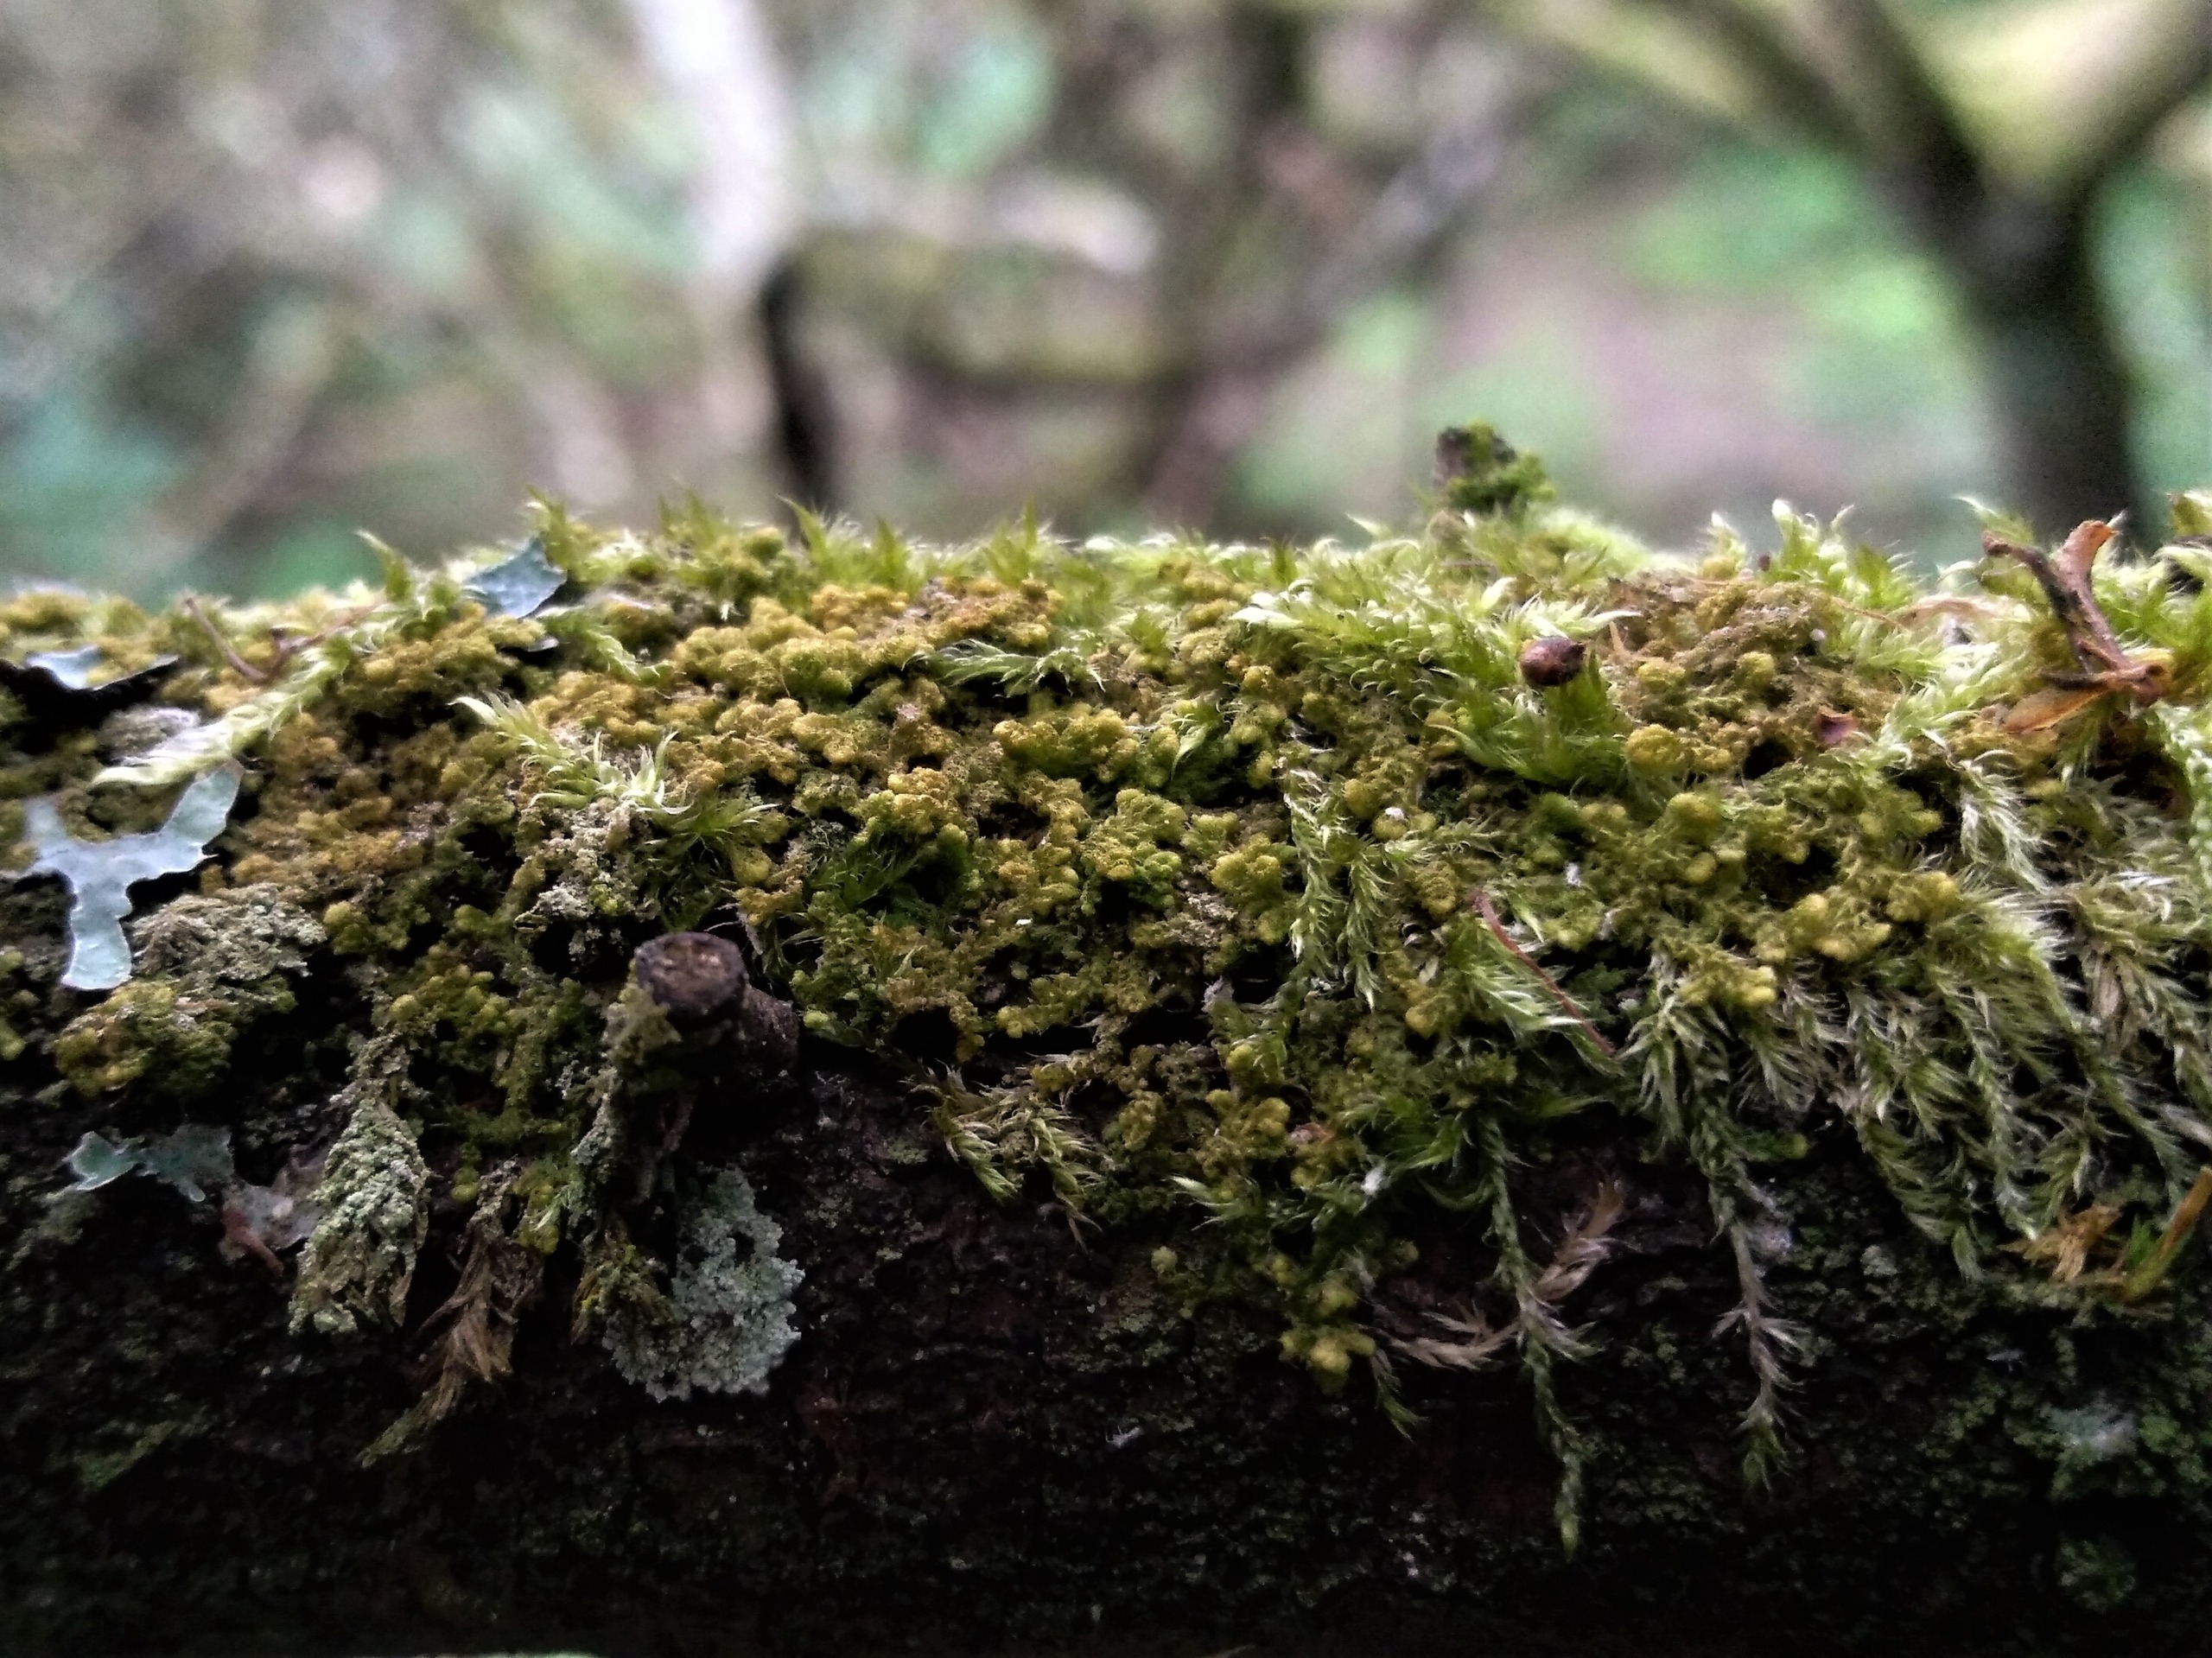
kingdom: Plantae
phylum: Marchantiophyta
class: Jungermanniopsida
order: Ptilidiales
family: Ptilidiaceae
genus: Ptilidium
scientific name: Ptilidium pulcherrimum
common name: Stub-frynsemos
